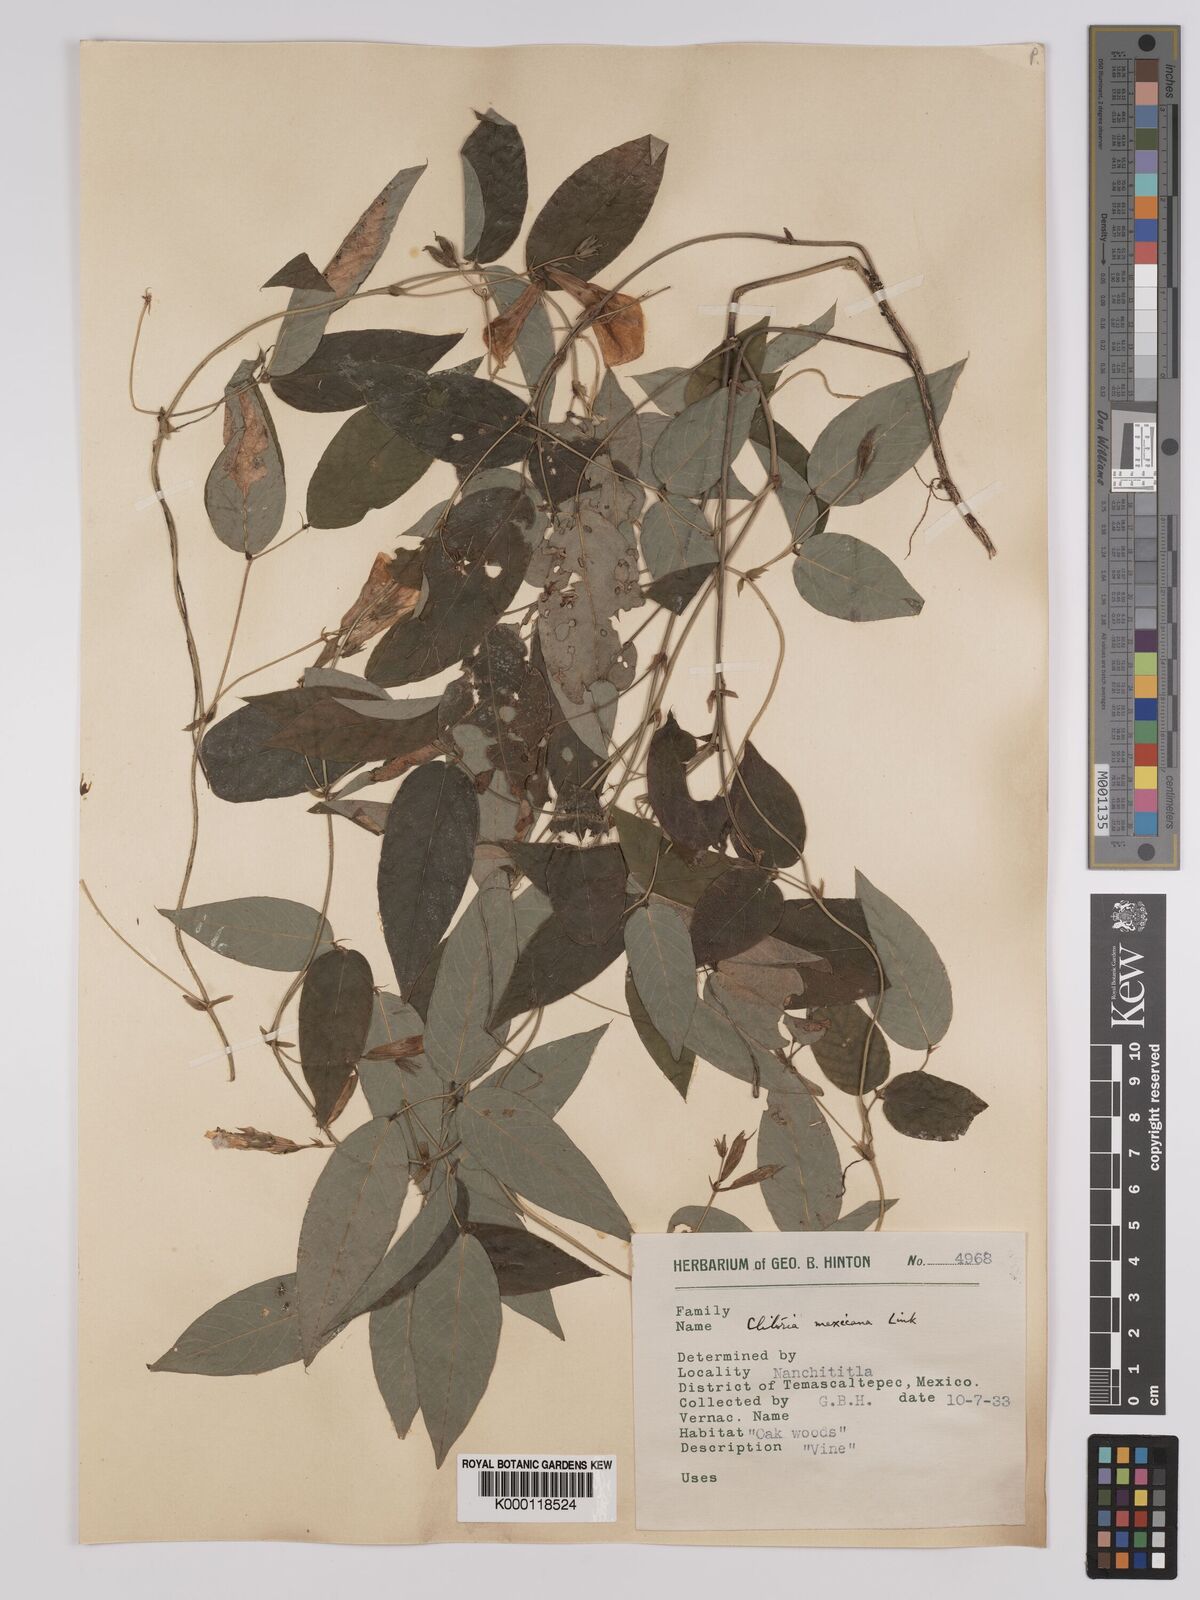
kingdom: Plantae
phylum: Tracheophyta
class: Magnoliopsida
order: Fabales
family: Fabaceae
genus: Clitoria
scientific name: Clitoria mexicana
